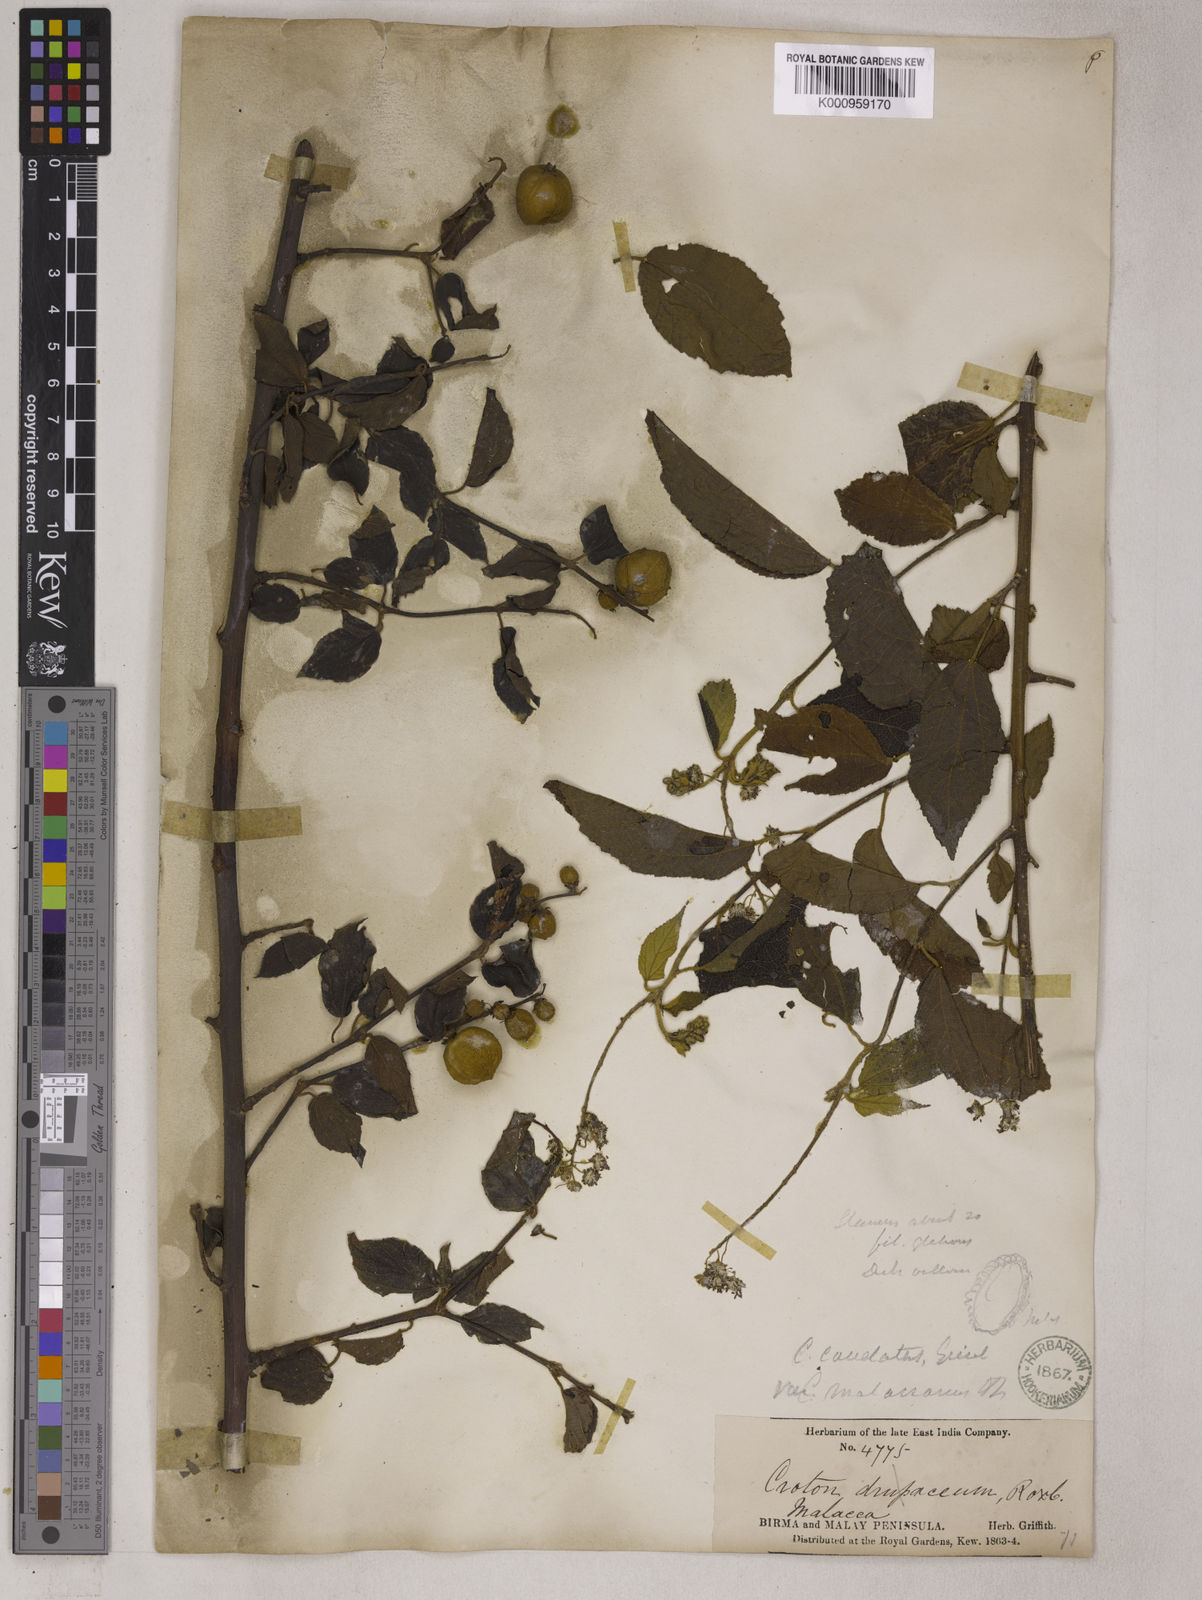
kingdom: Plantae
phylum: Tracheophyta
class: Magnoliopsida
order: Malpighiales
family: Euphorbiaceae
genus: Croton
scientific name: Croton caudatus
